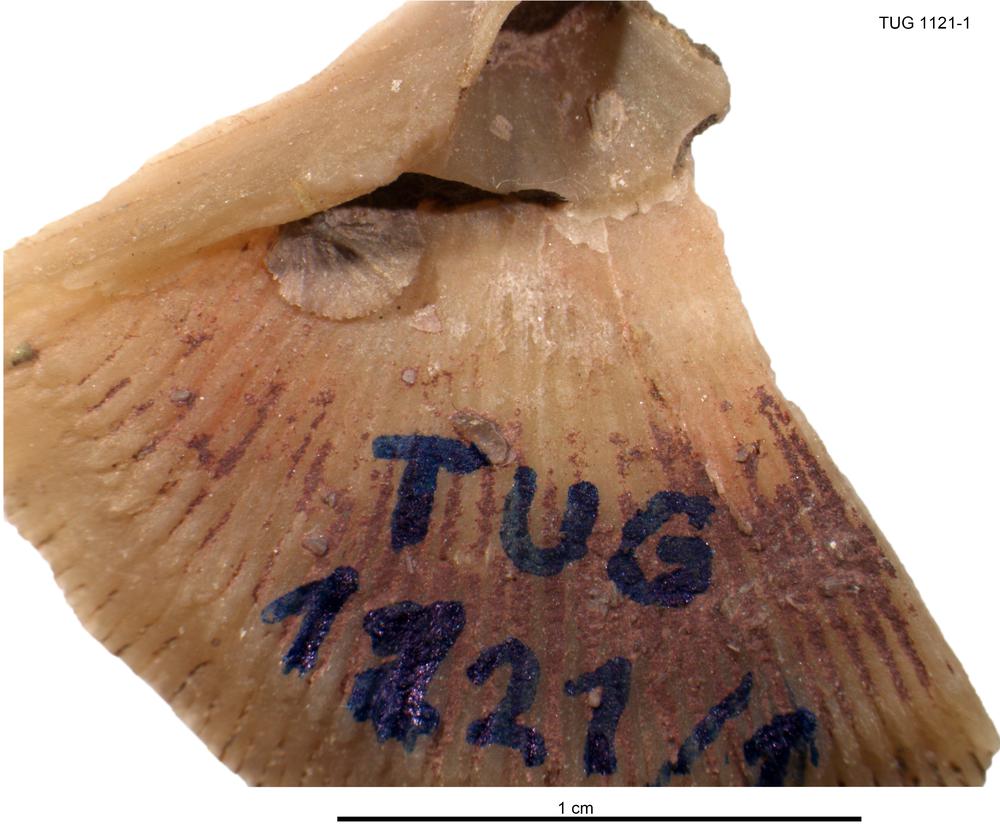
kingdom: Animalia
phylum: Brachiopoda
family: Gonambonitidae
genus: Gonambonites
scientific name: Gonambonites plana
